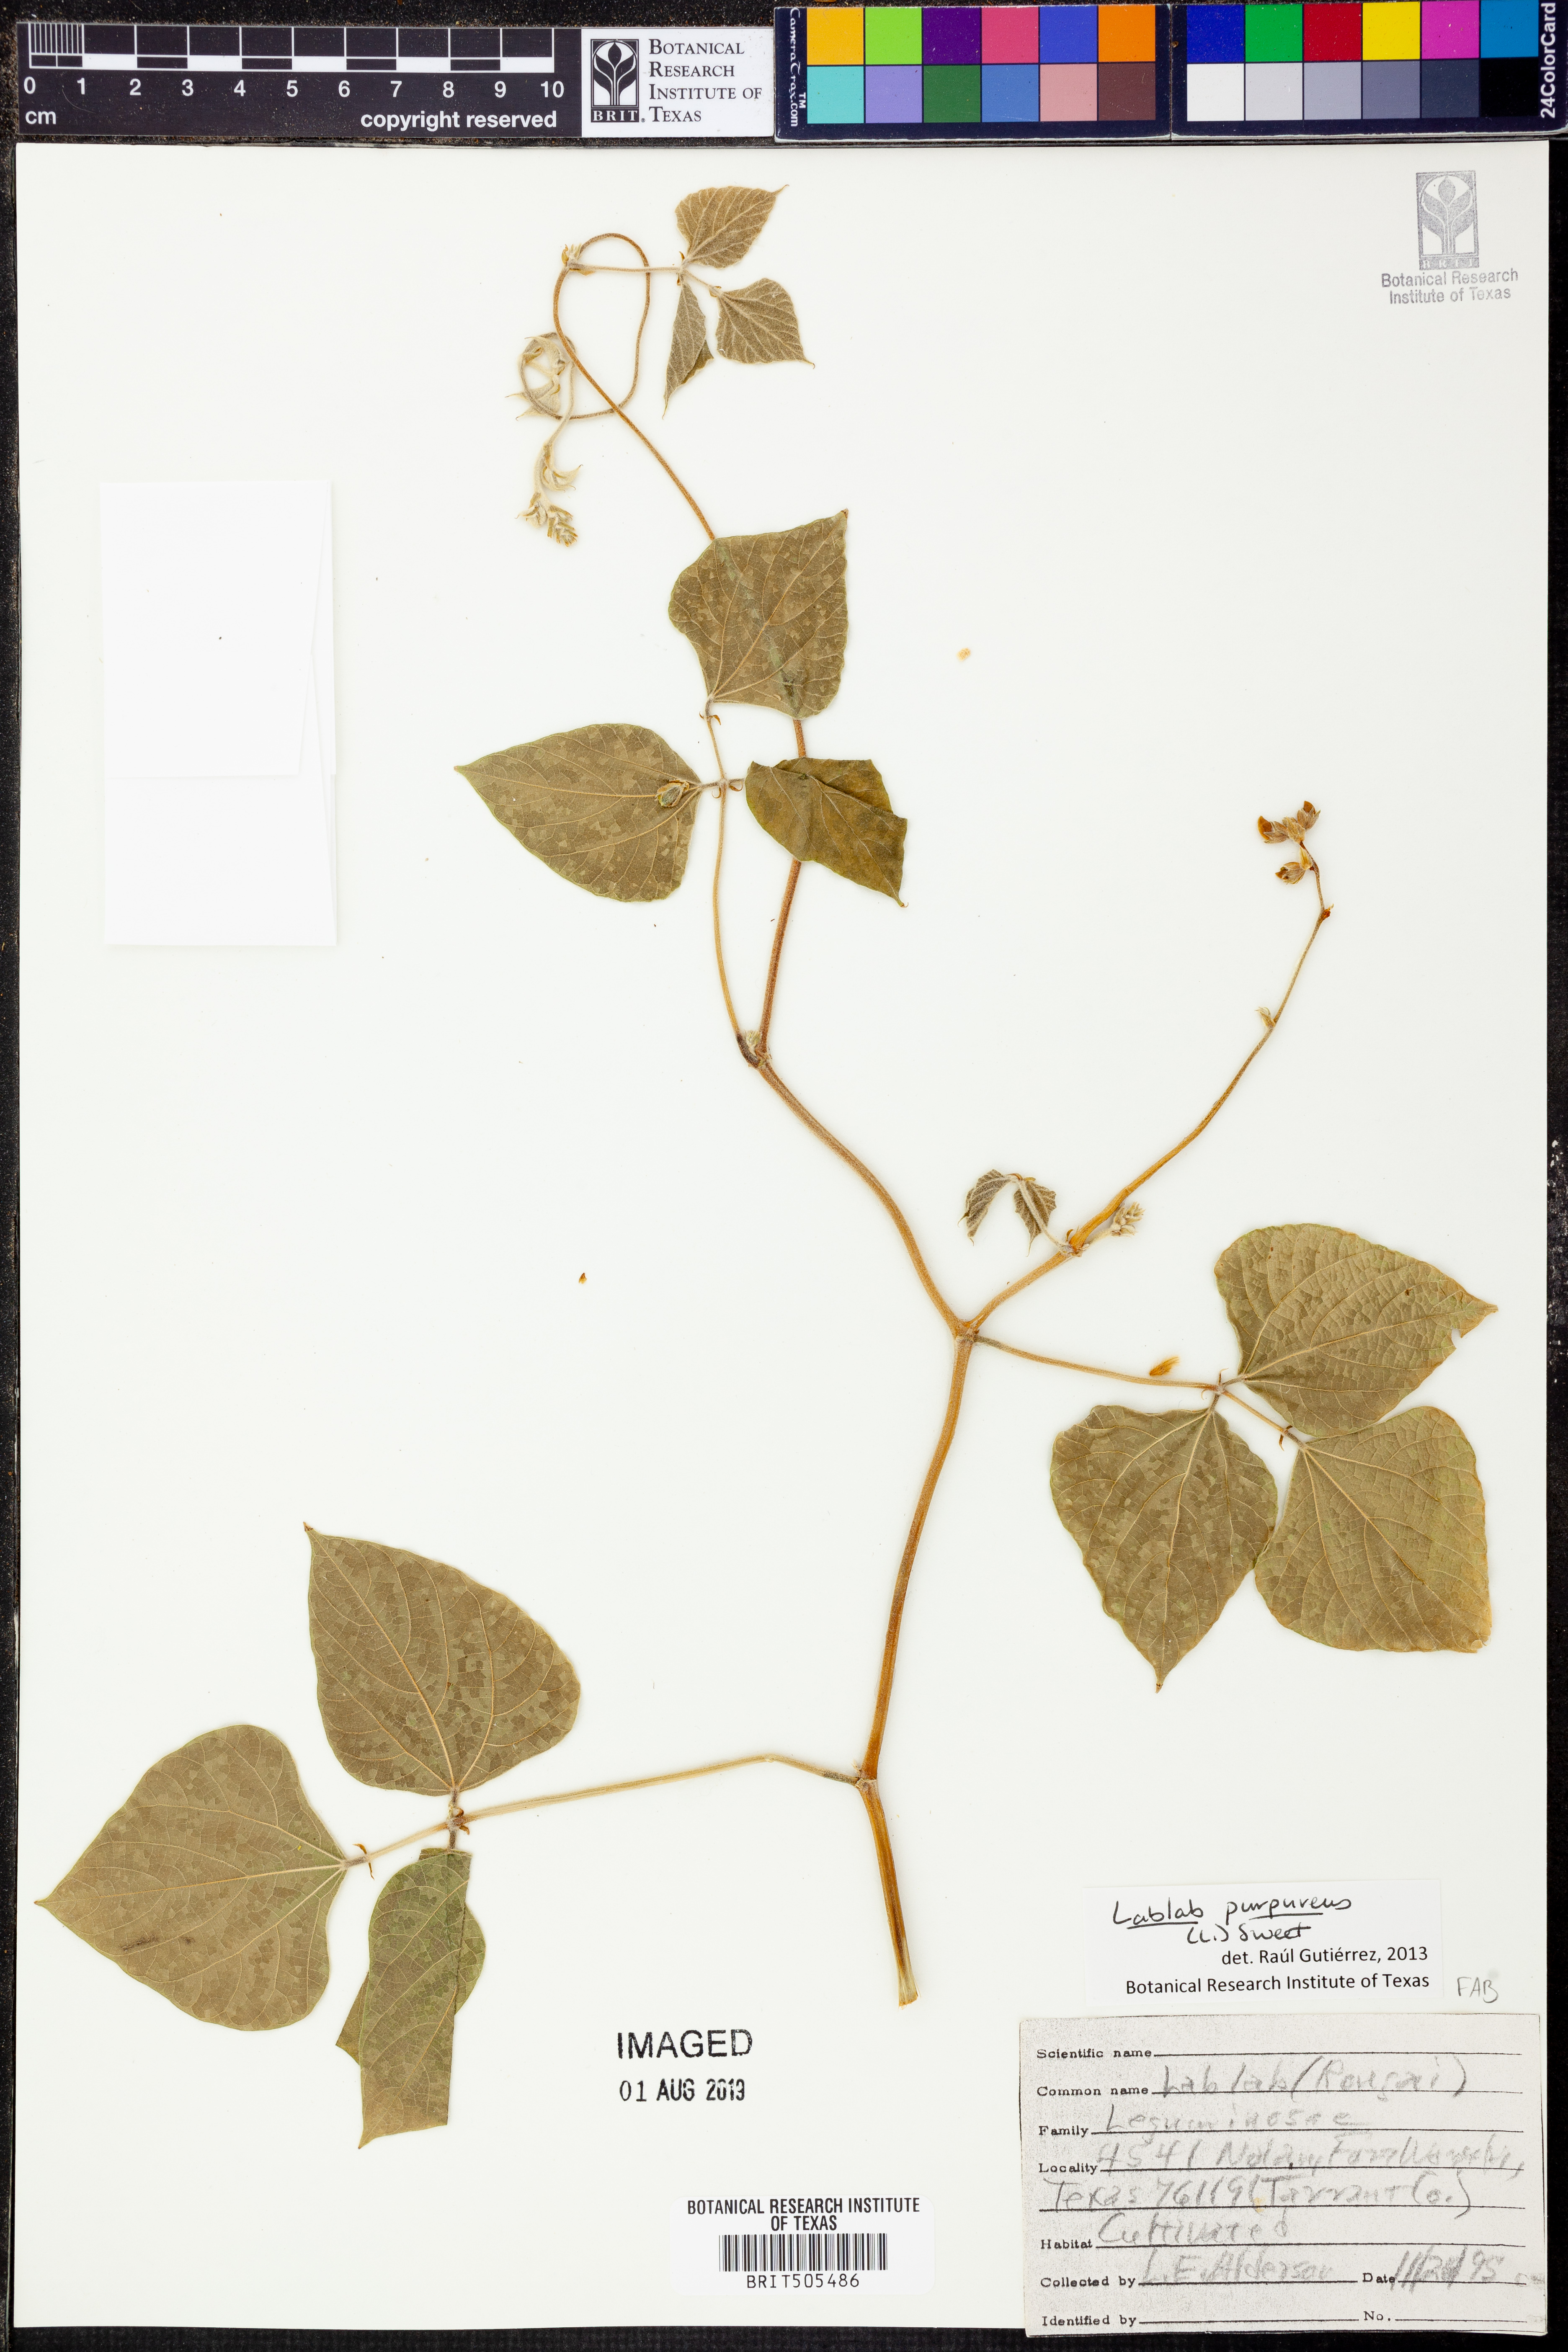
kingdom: Plantae
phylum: Tracheophyta
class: Magnoliopsida
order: Fabales
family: Fabaceae
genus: Lablab
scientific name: Lablab purpureus
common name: Lablab-bean
